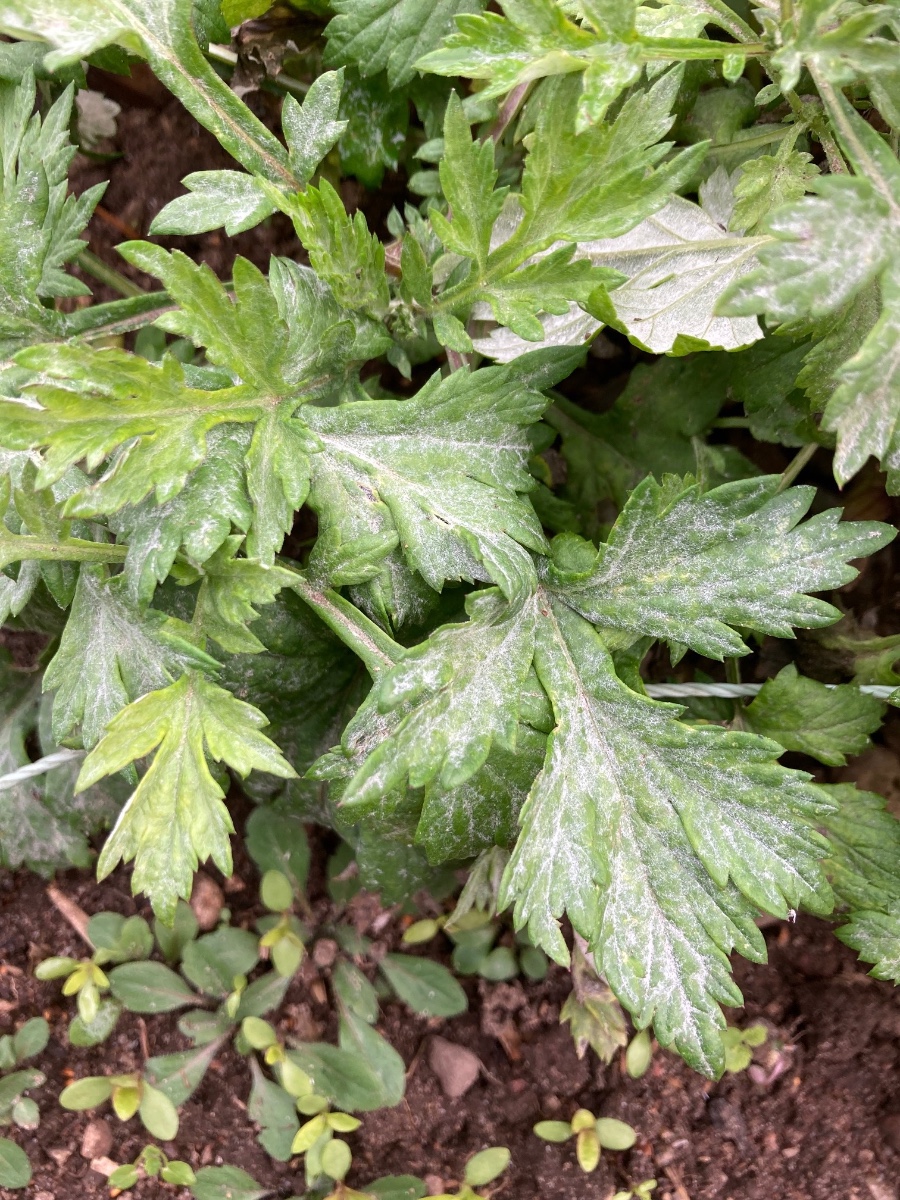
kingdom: Fungi
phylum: Ascomycota
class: Leotiomycetes
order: Helotiales
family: Erysiphaceae
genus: Golovinomyces
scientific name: Golovinomyces artemisiae
